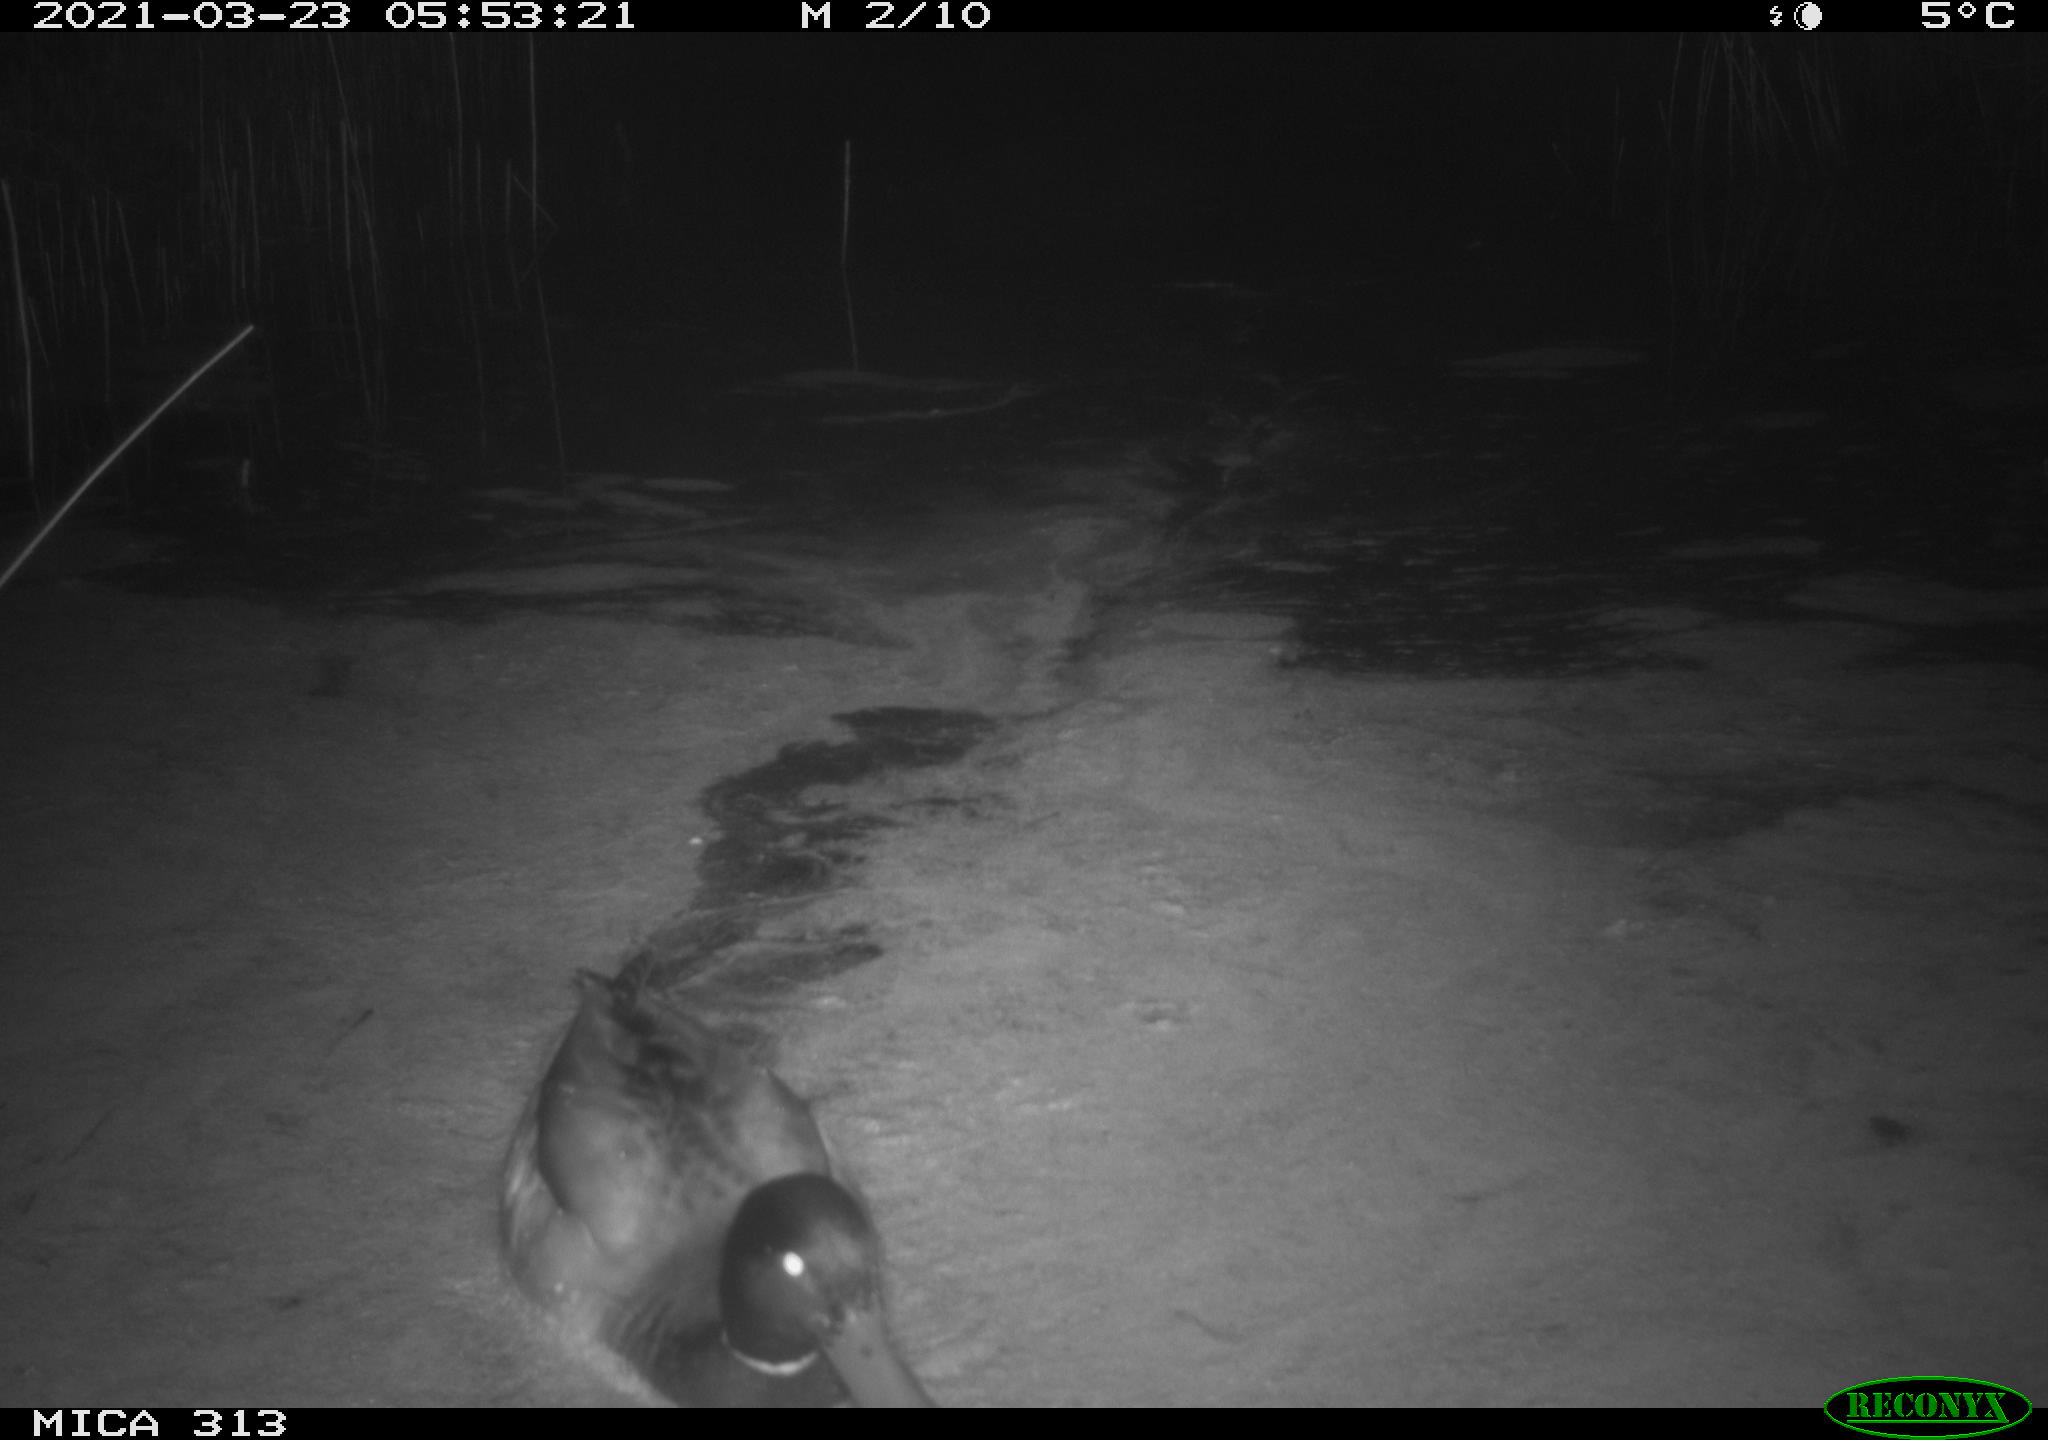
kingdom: Animalia
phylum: Chordata
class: Aves
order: Gruiformes
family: Rallidae
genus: Fulica
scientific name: Fulica atra
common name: Eurasian coot
